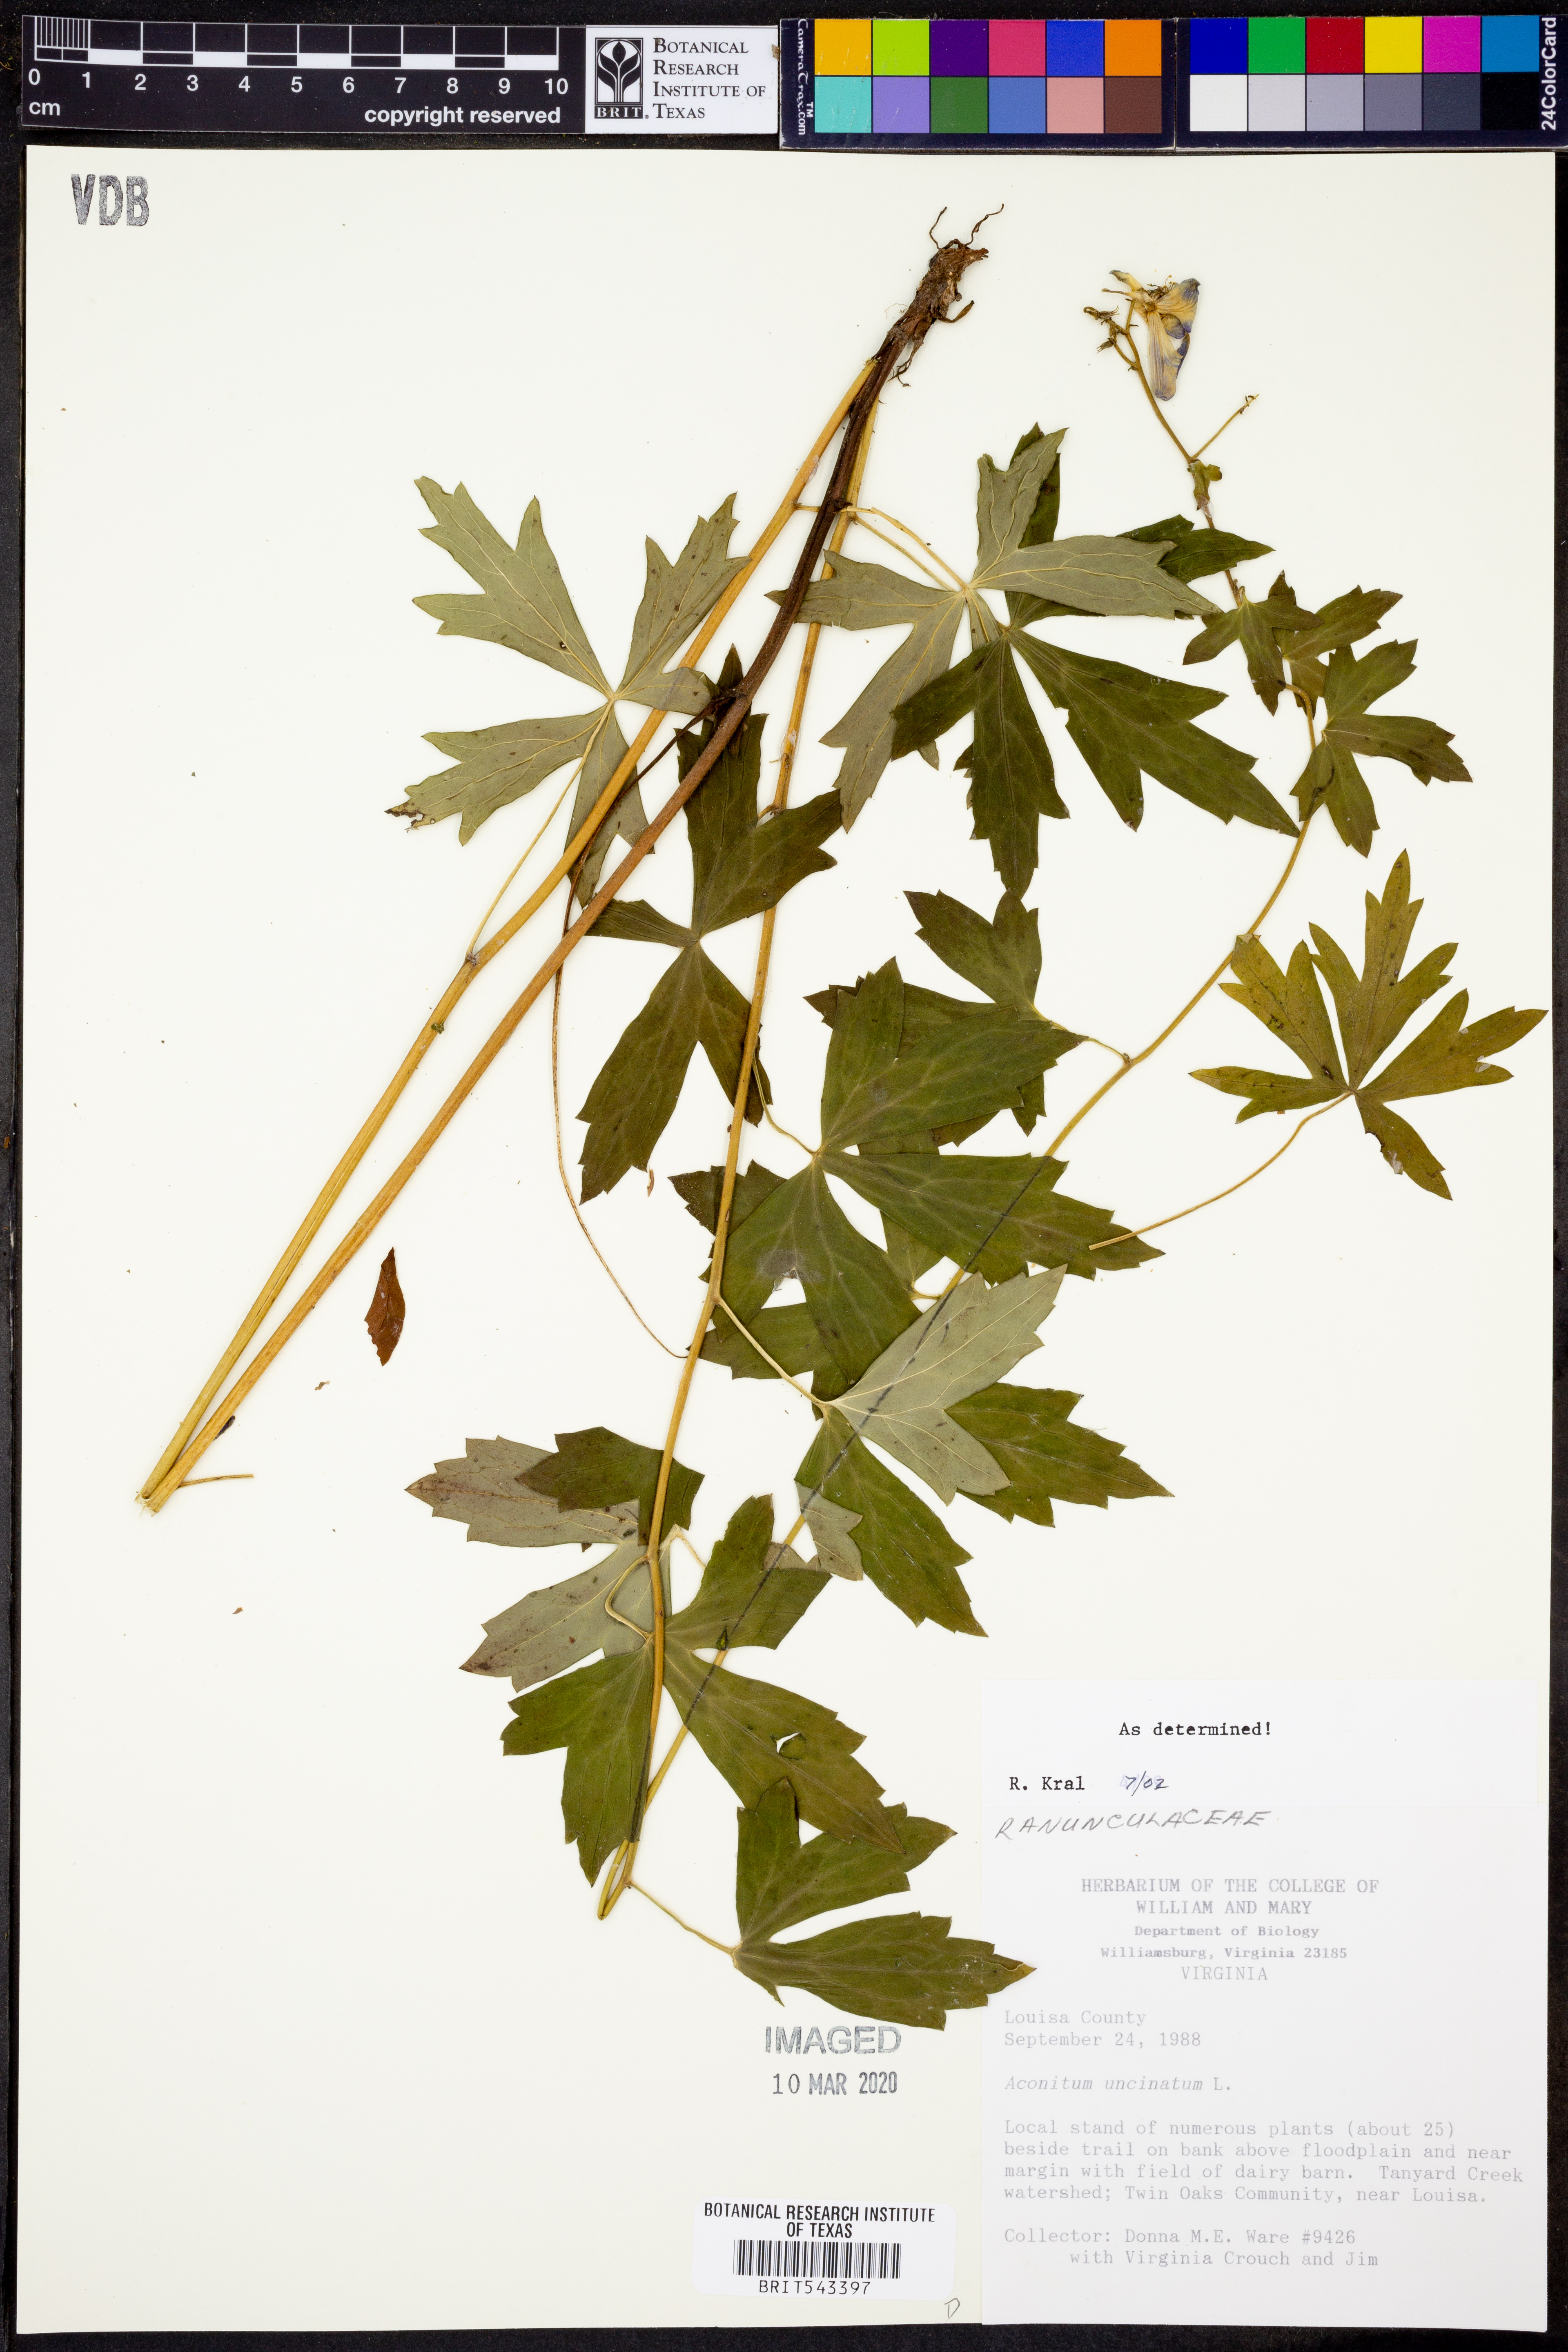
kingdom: Plantae
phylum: Tracheophyta
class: Magnoliopsida
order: Ranunculales
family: Ranunculaceae
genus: Aconitum
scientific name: Aconitum uncinatum
